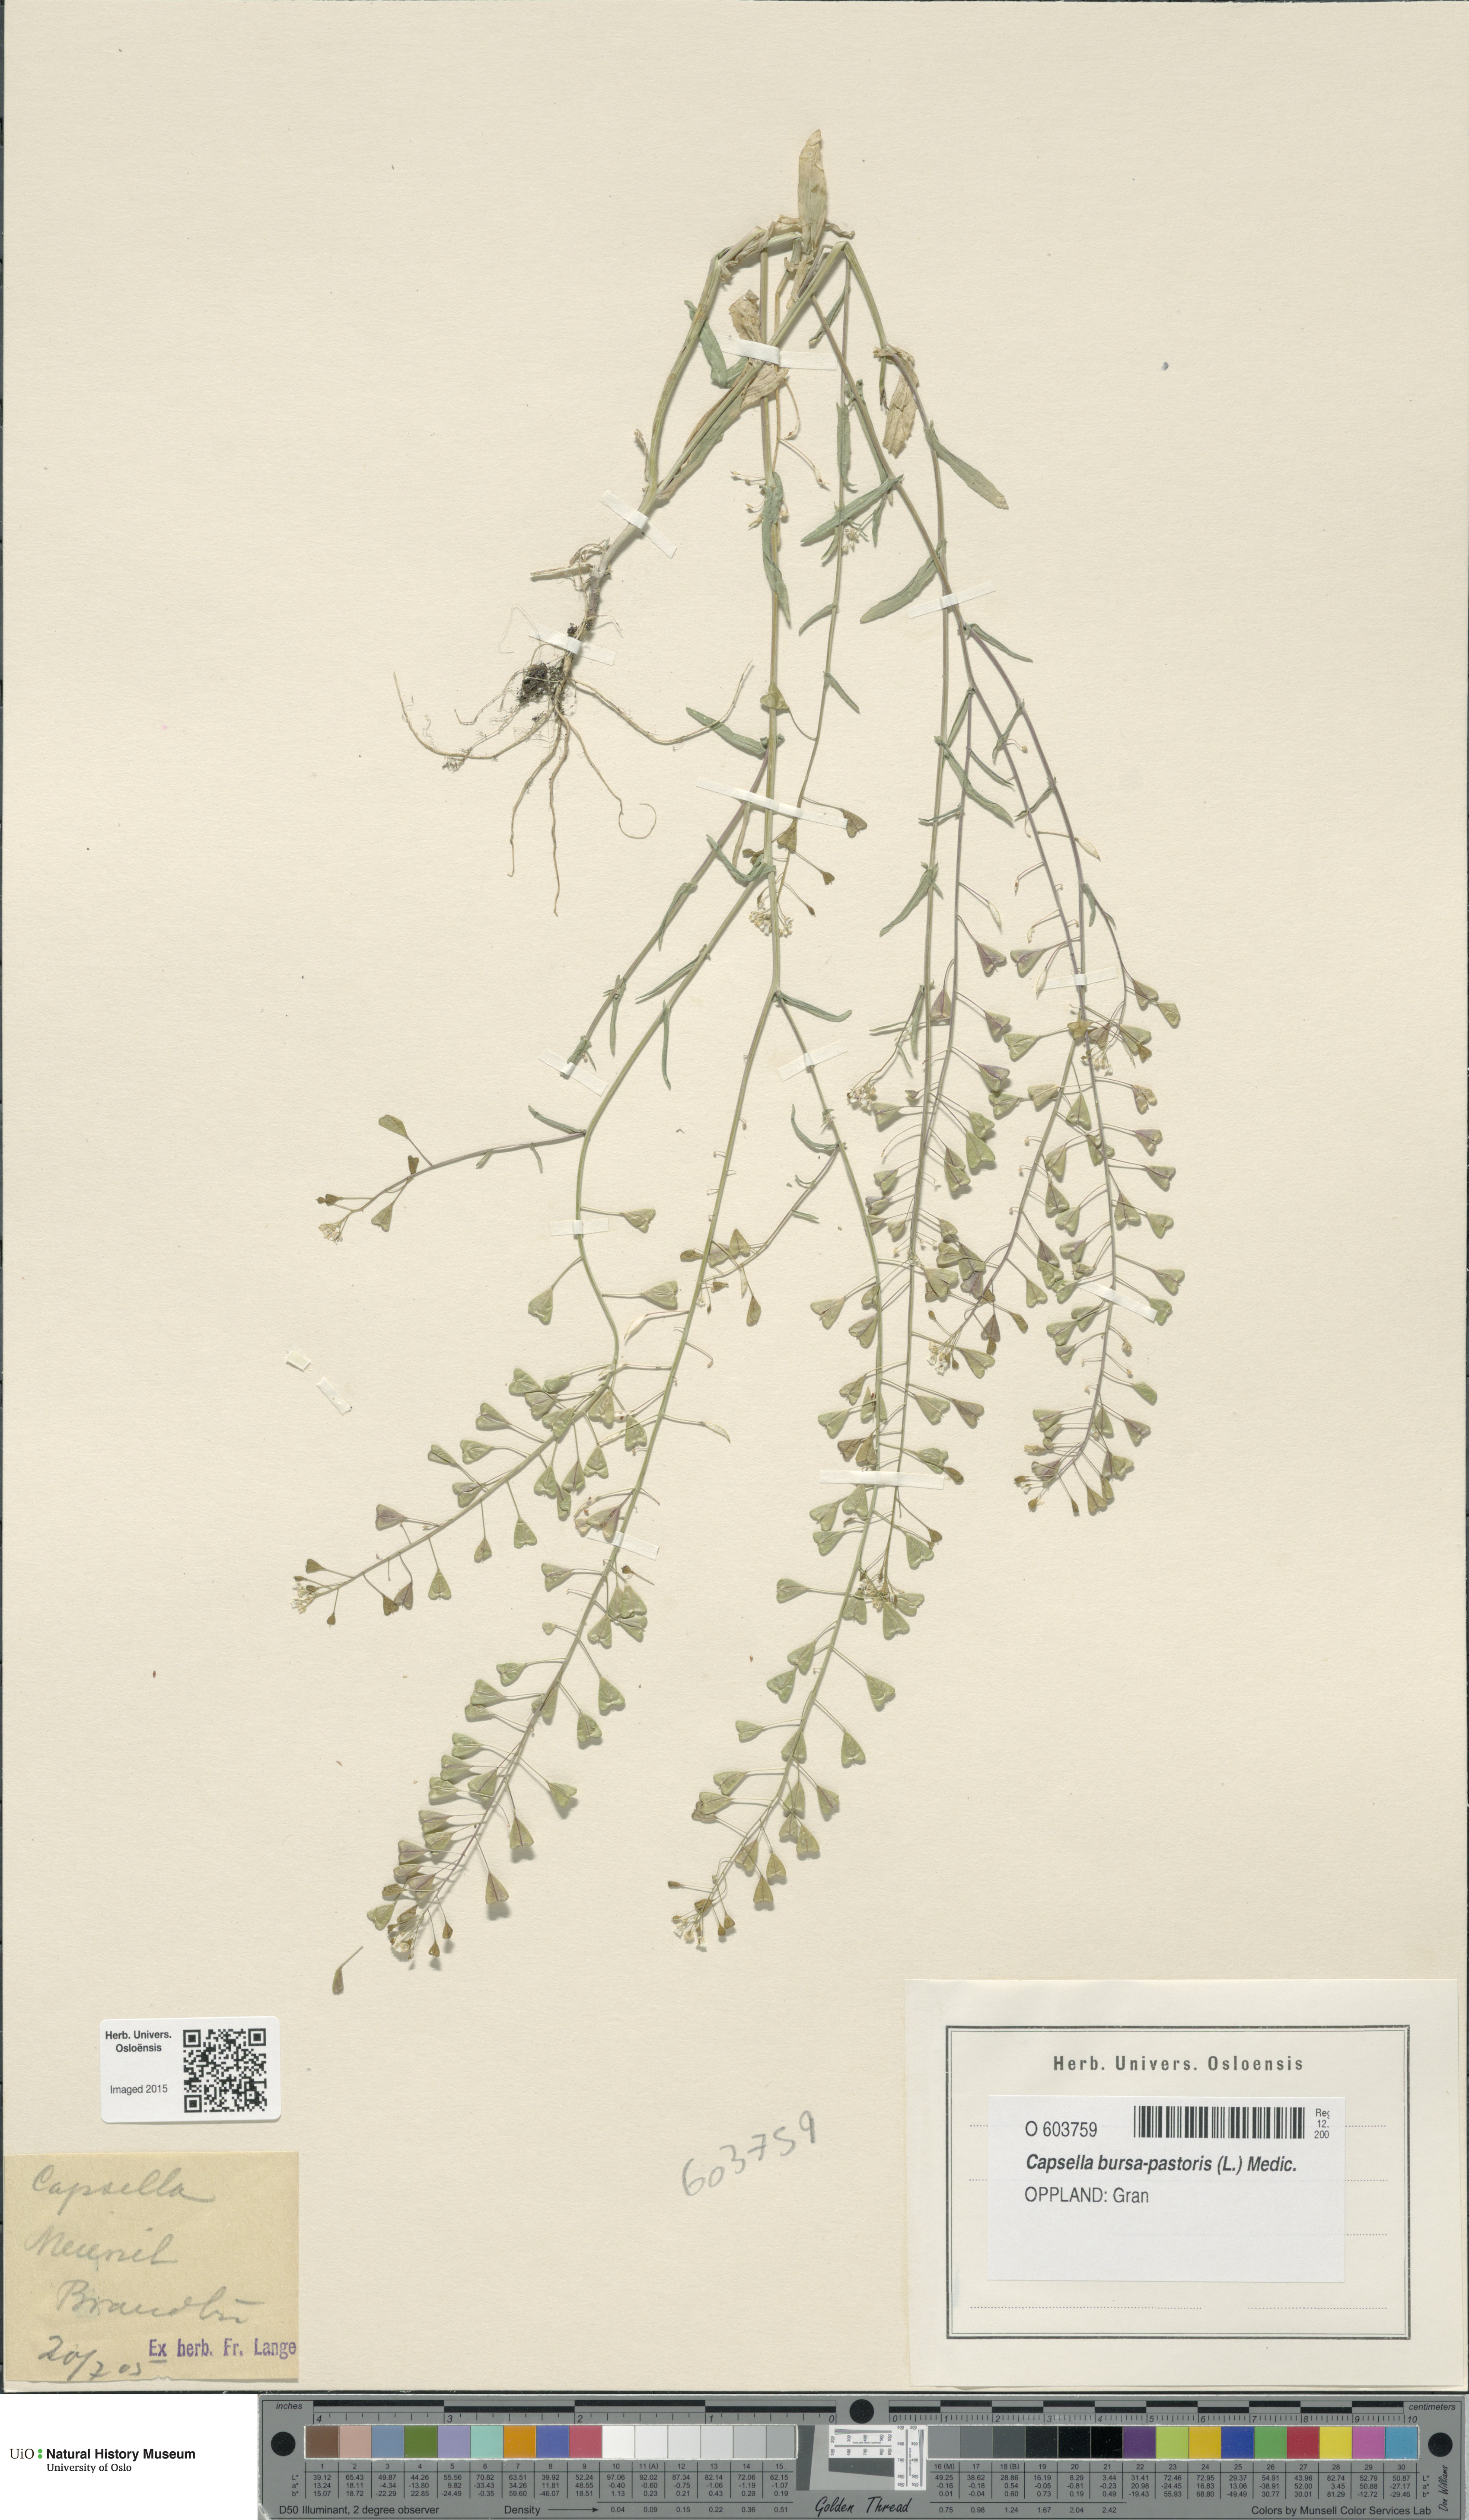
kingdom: Plantae
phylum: Tracheophyta
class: Magnoliopsida
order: Brassicales
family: Brassicaceae
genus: Capsella
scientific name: Capsella bursa-pastoris
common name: Shepherd's purse
